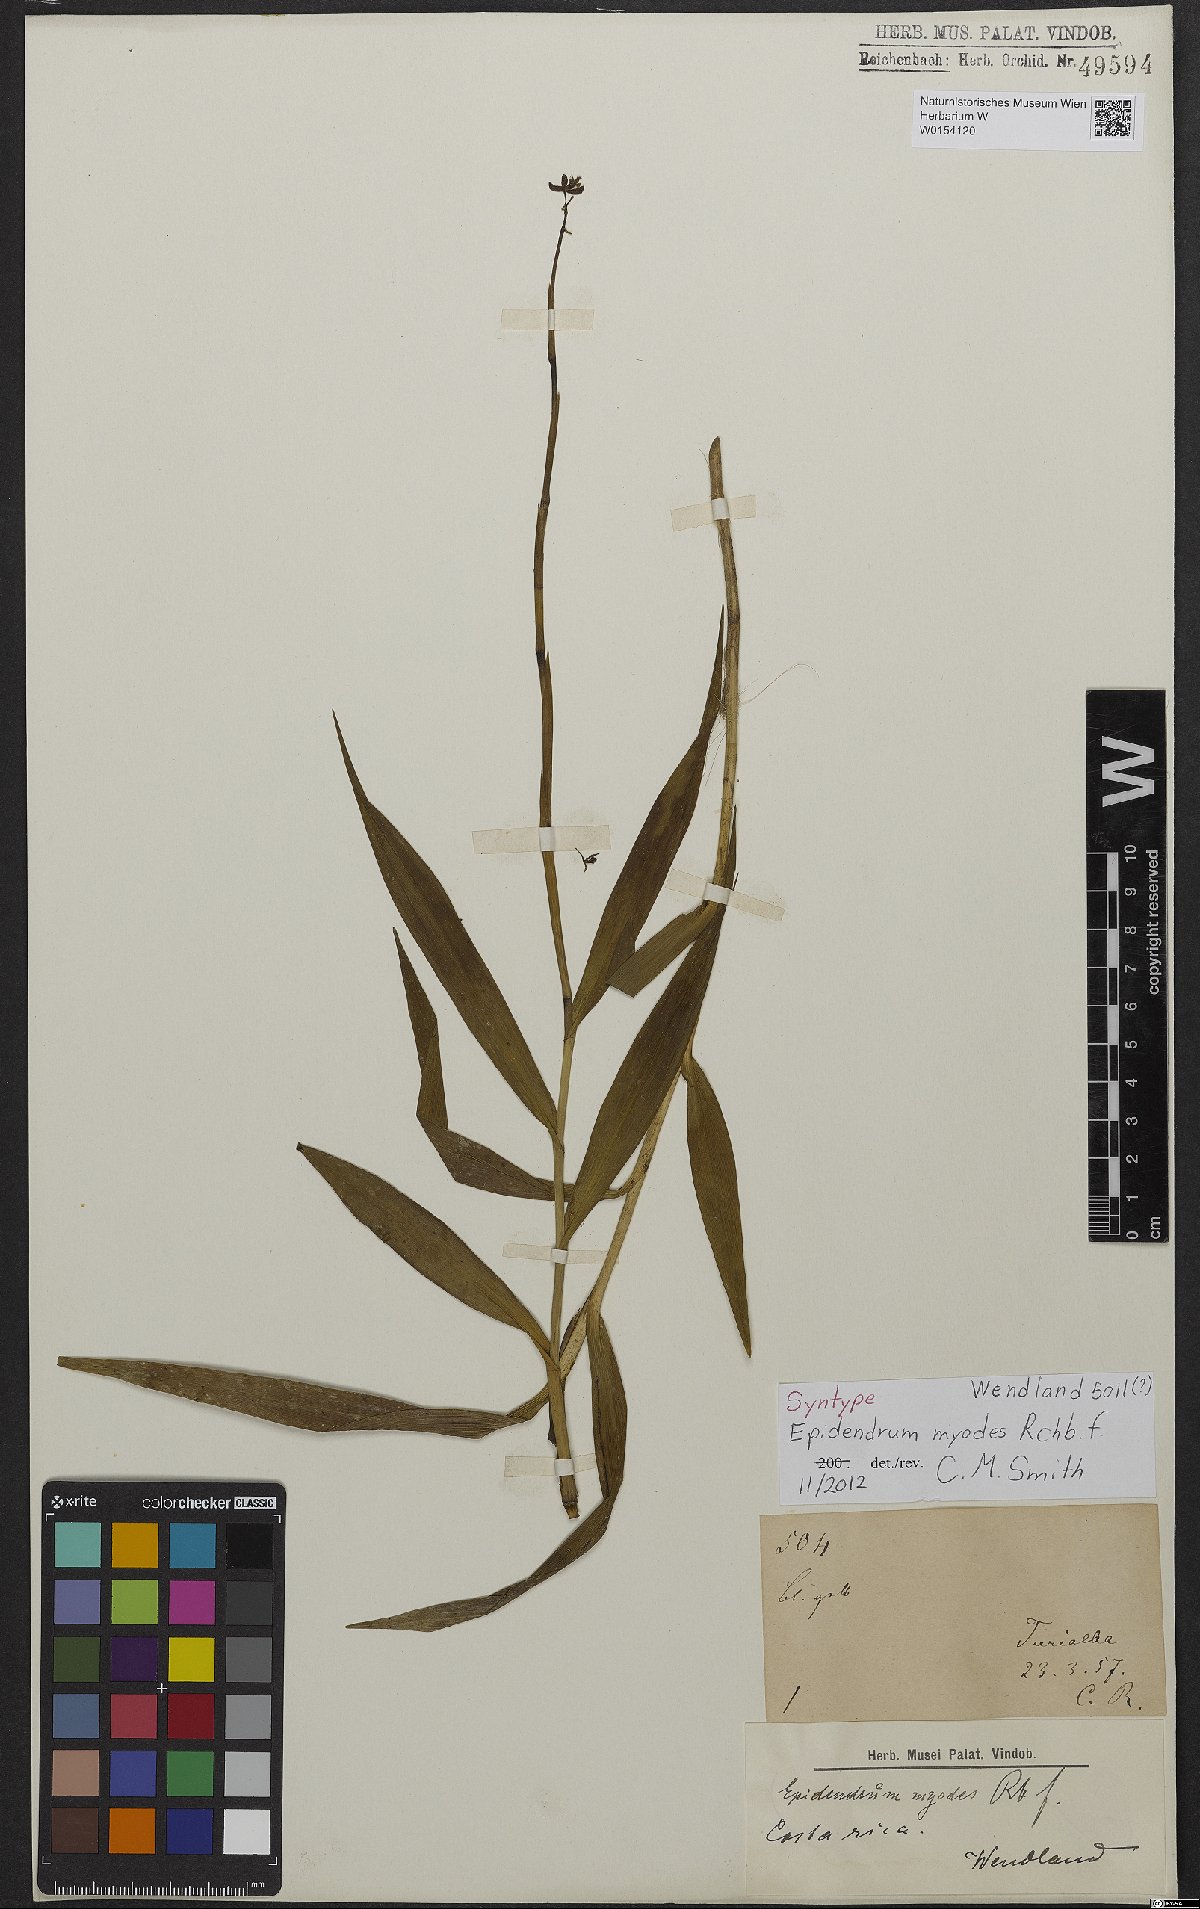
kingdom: Plantae
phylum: Tracheophyta
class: Liliopsida
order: Asparagales
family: Orchidaceae
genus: Epidendrum
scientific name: Epidendrum myodes
